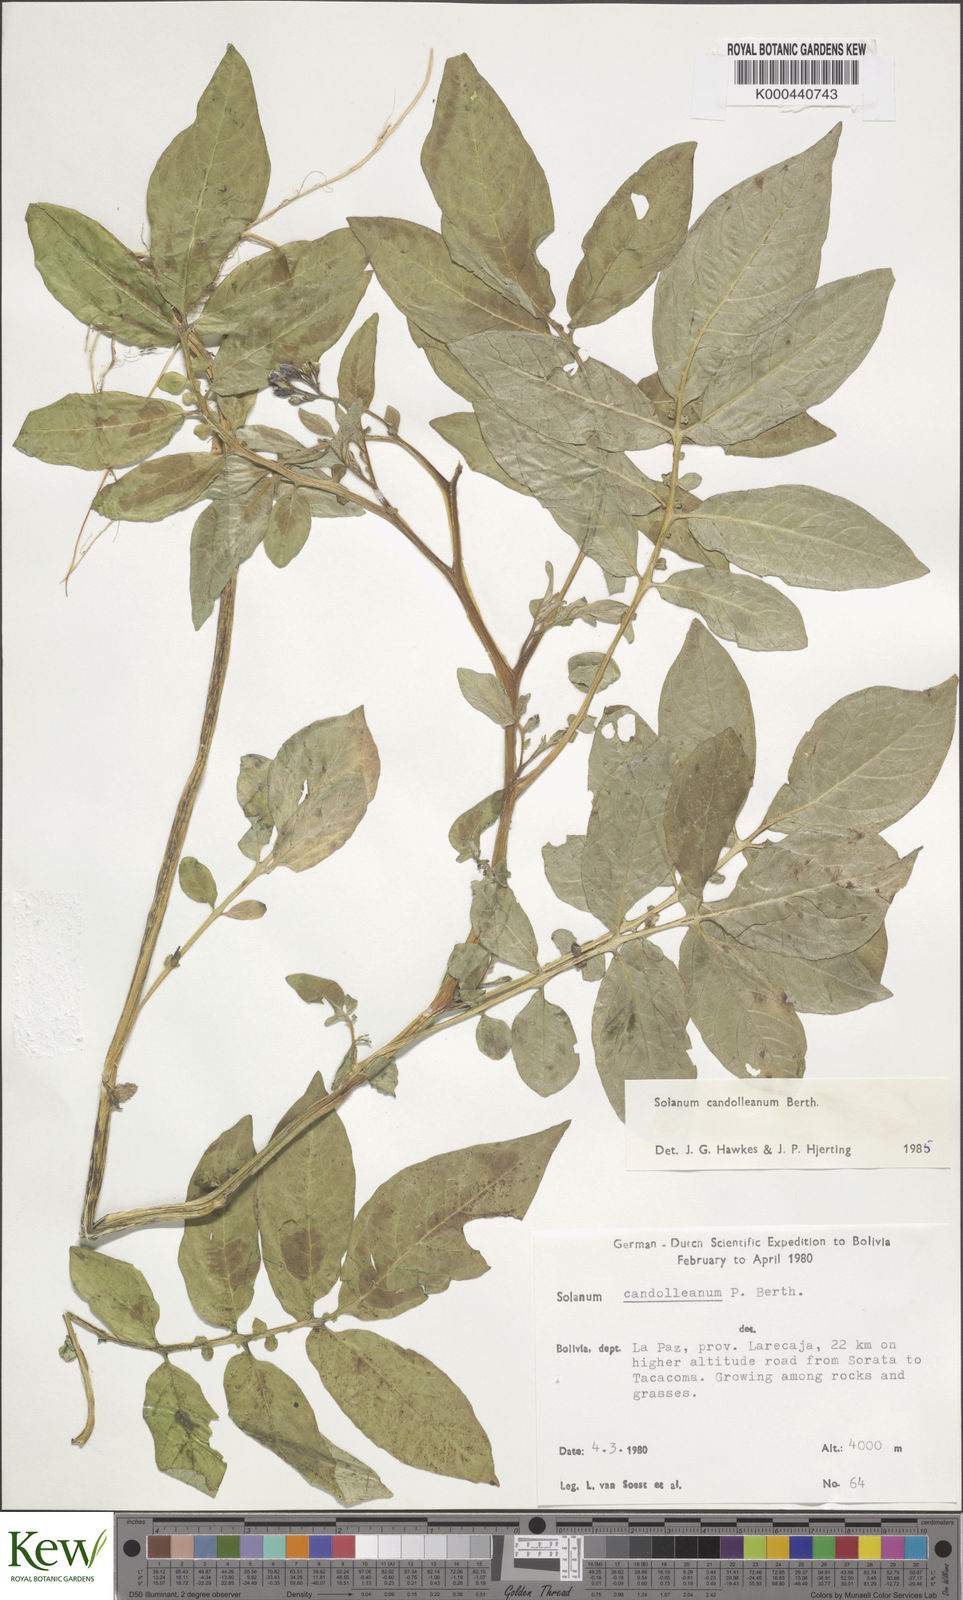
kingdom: Plantae
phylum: Tracheophyta
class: Magnoliopsida
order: Solanales
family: Solanaceae
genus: Solanum
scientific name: Solanum brevicaule
